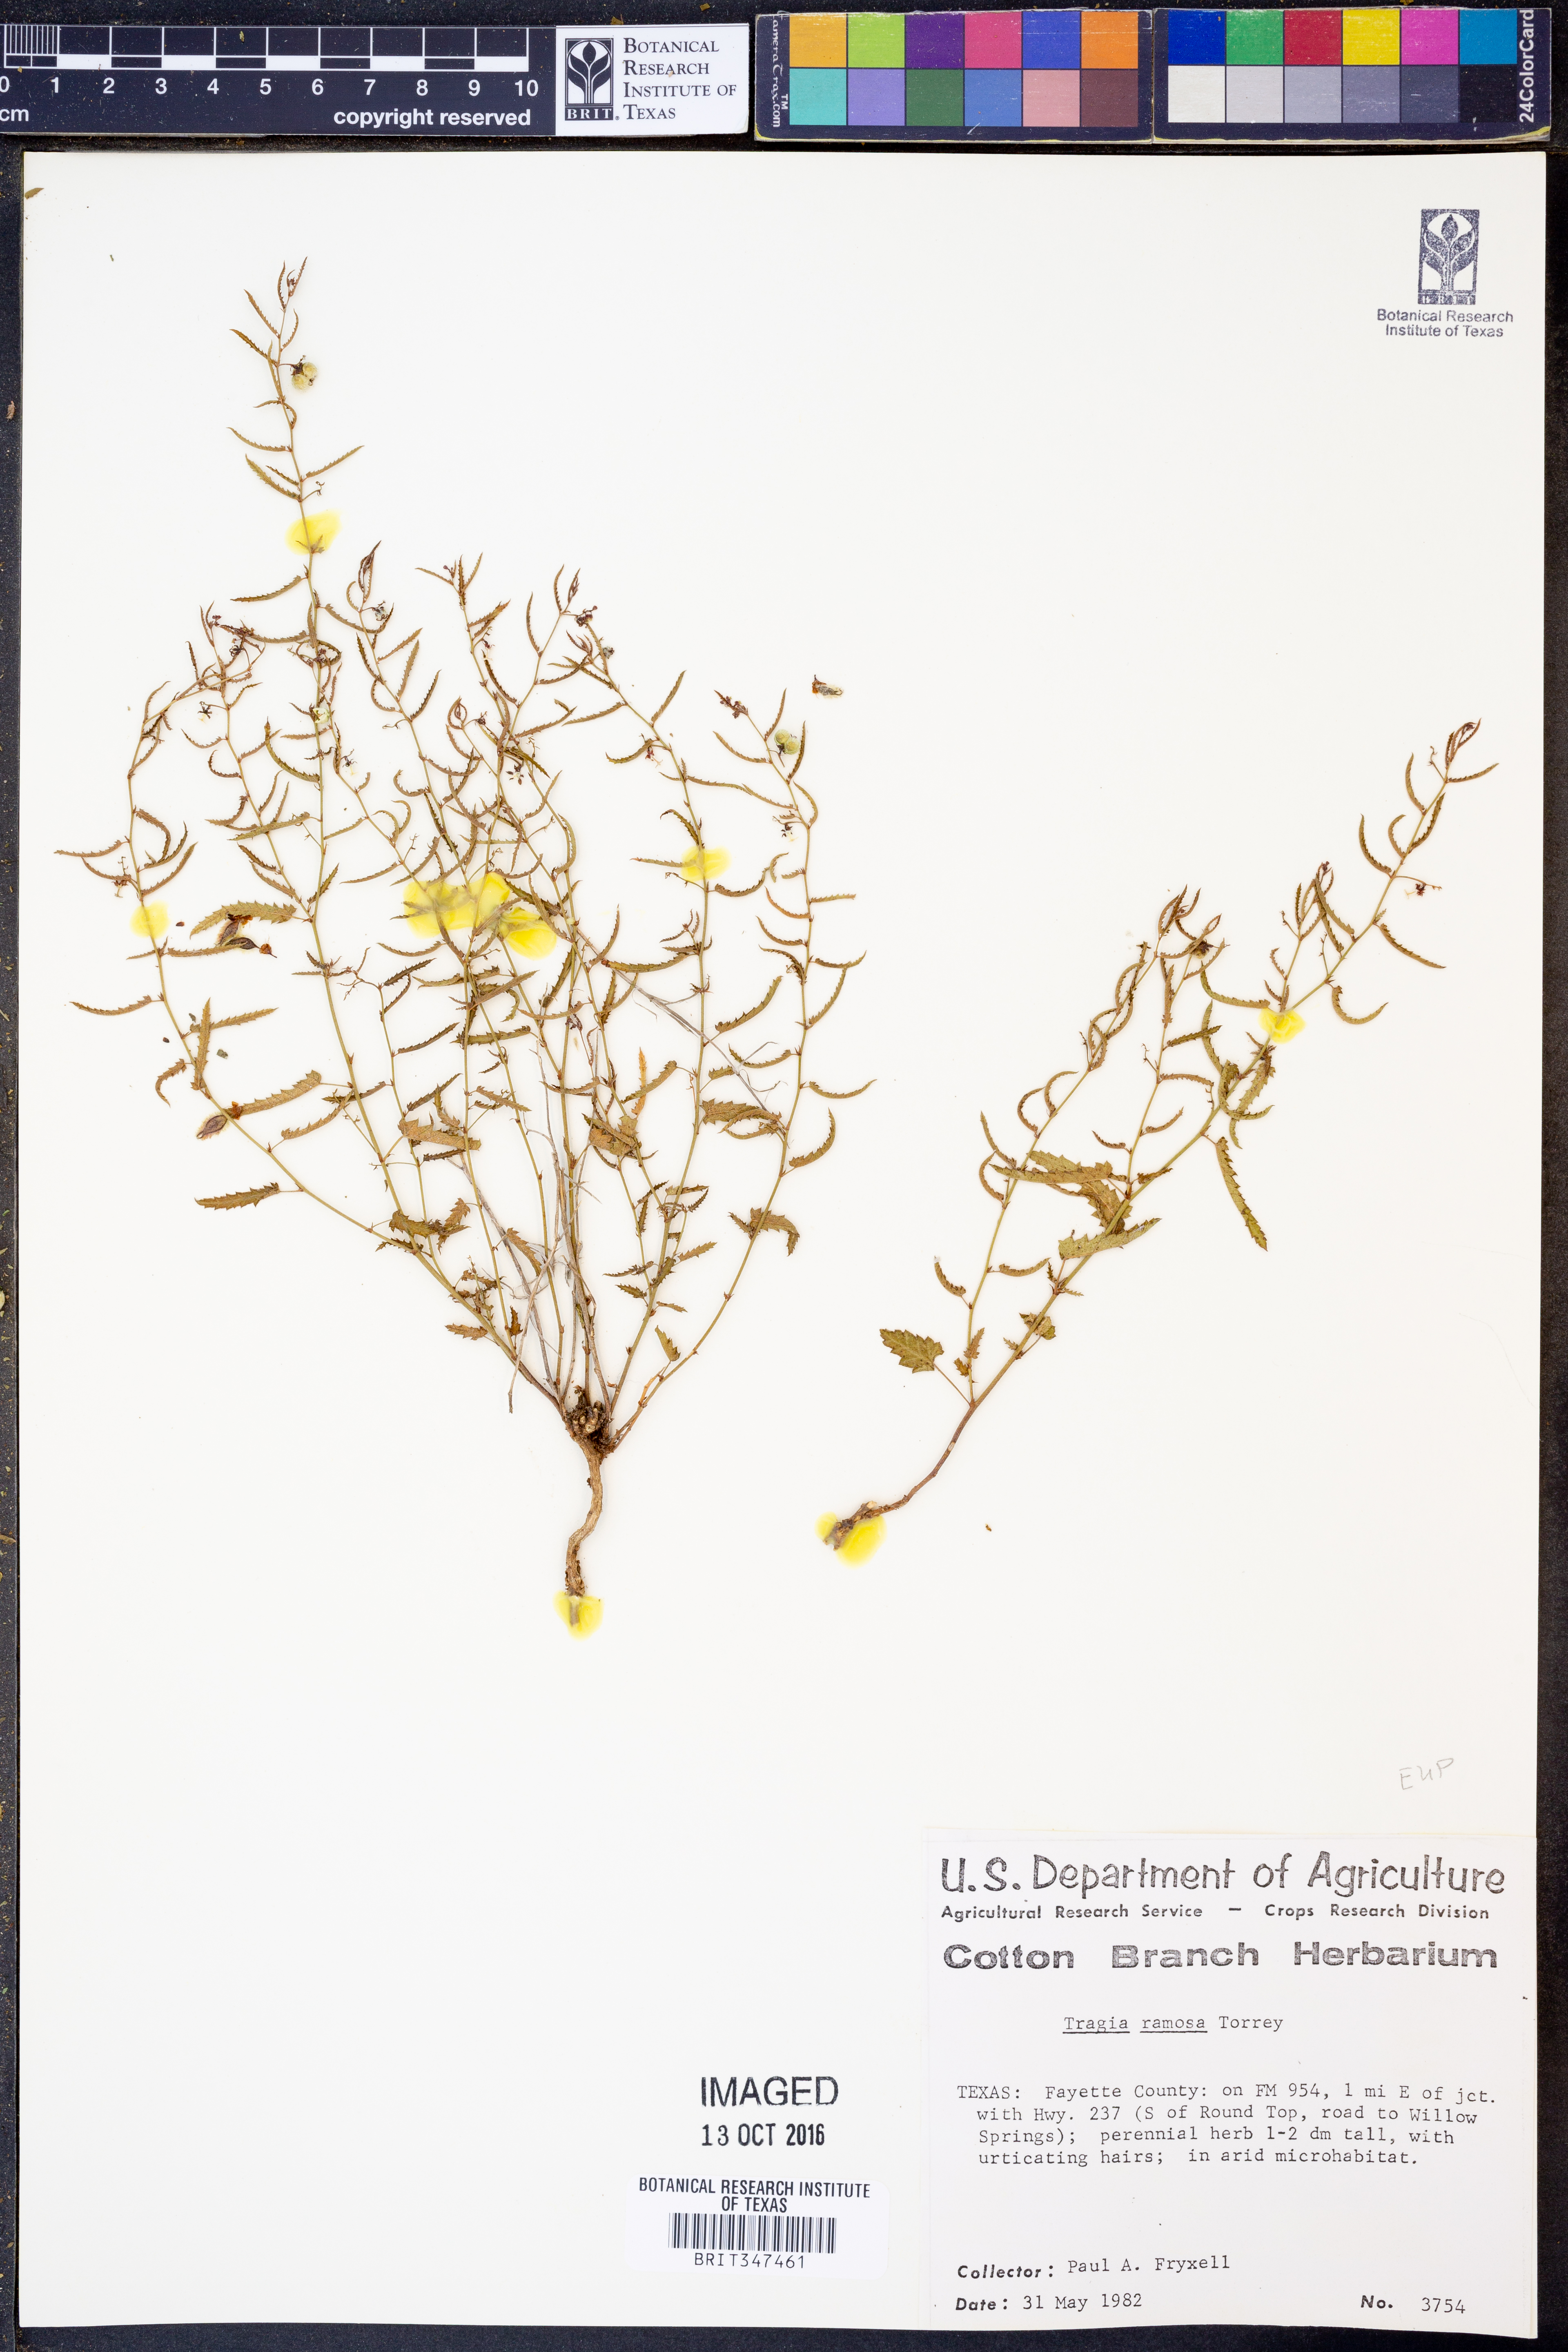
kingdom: Plantae
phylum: Tracheophyta
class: Magnoliopsida
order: Malpighiales
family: Euphorbiaceae
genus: Tragia
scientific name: Tragia ramosa
